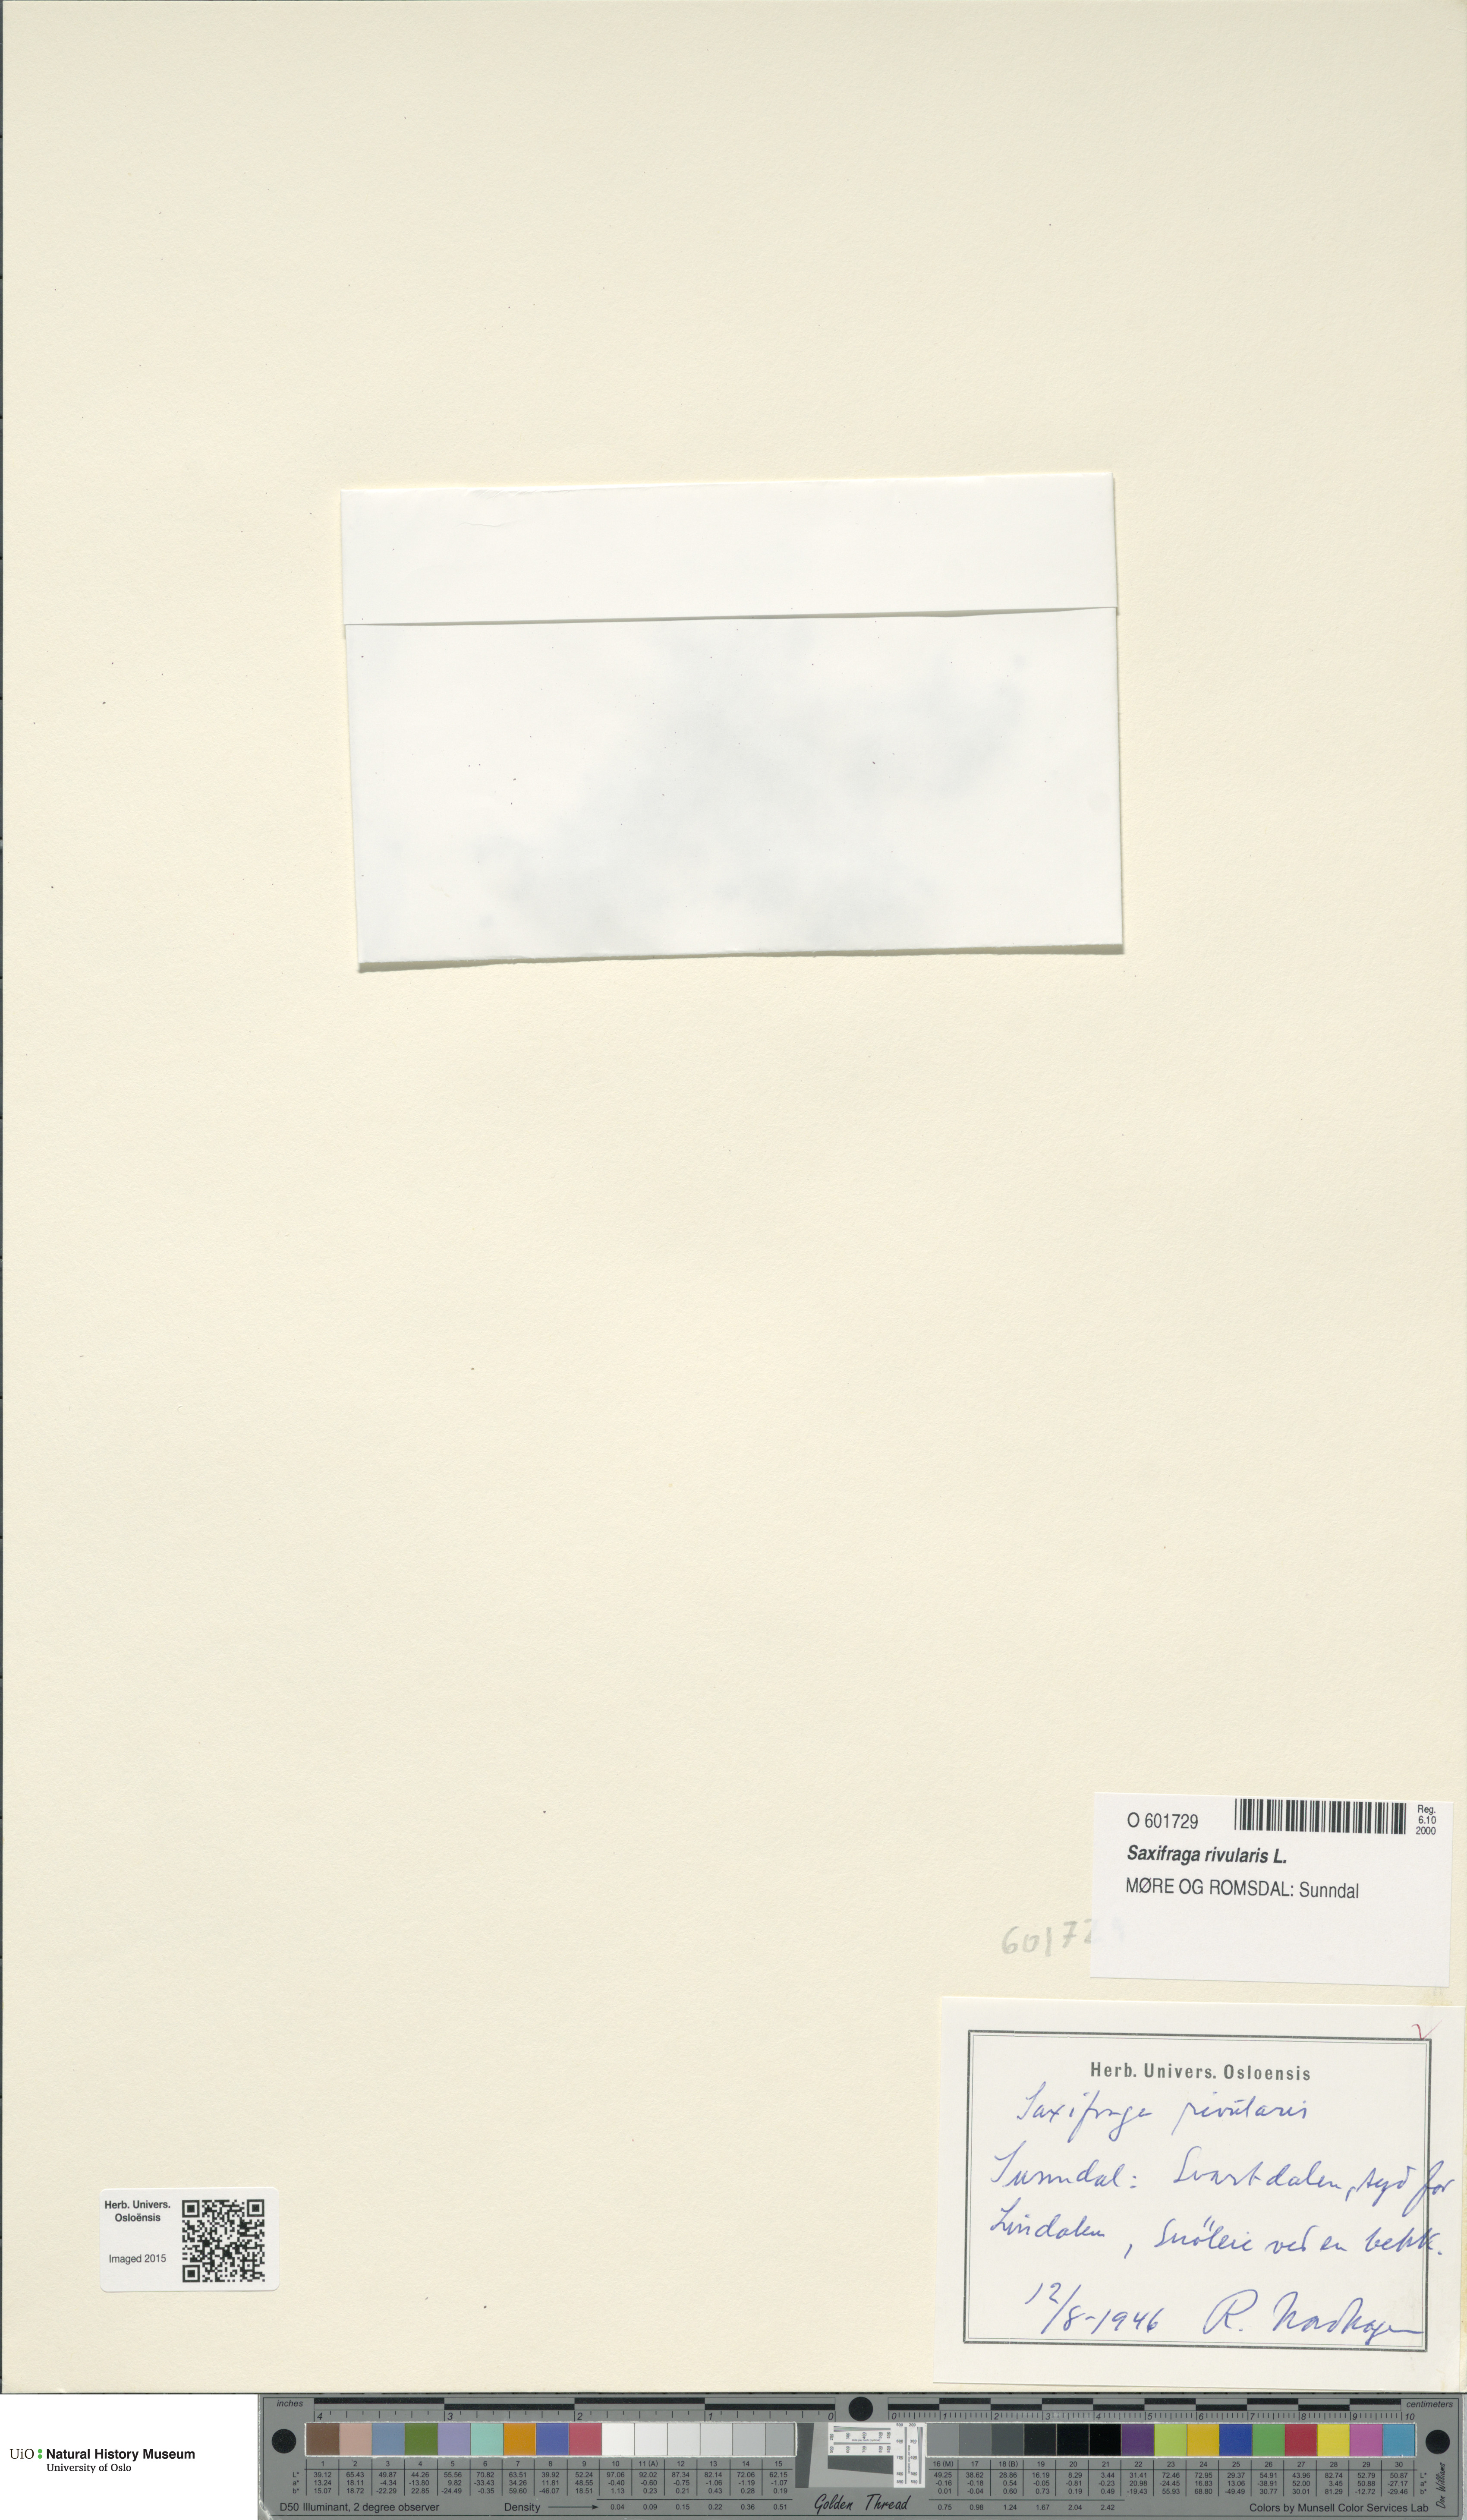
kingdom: Plantae
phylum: Tracheophyta
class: Magnoliopsida
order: Saxifragales
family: Saxifragaceae
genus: Saxifraga
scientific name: Saxifraga rivularis
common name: Highland saxifrage
